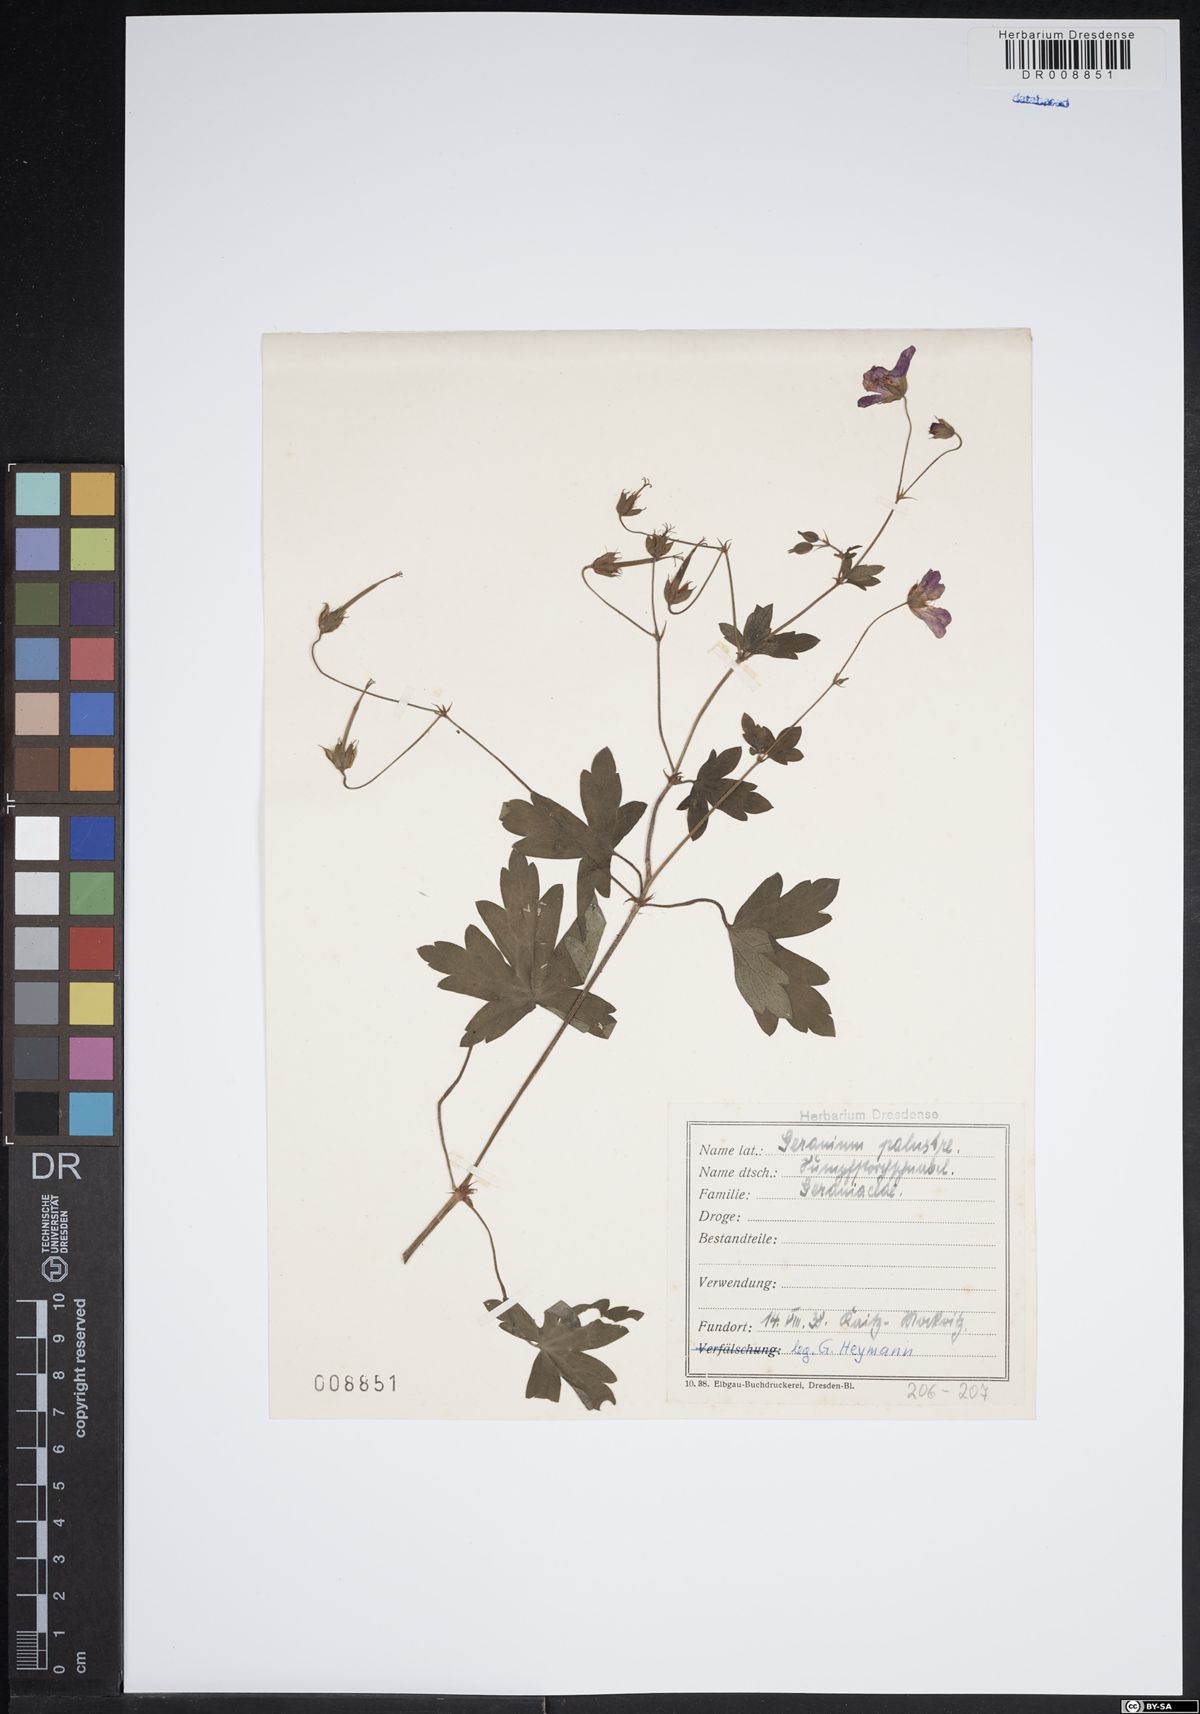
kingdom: Plantae
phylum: Tracheophyta
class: Magnoliopsida
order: Geraniales
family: Geraniaceae
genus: Geranium
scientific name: Geranium palustre
